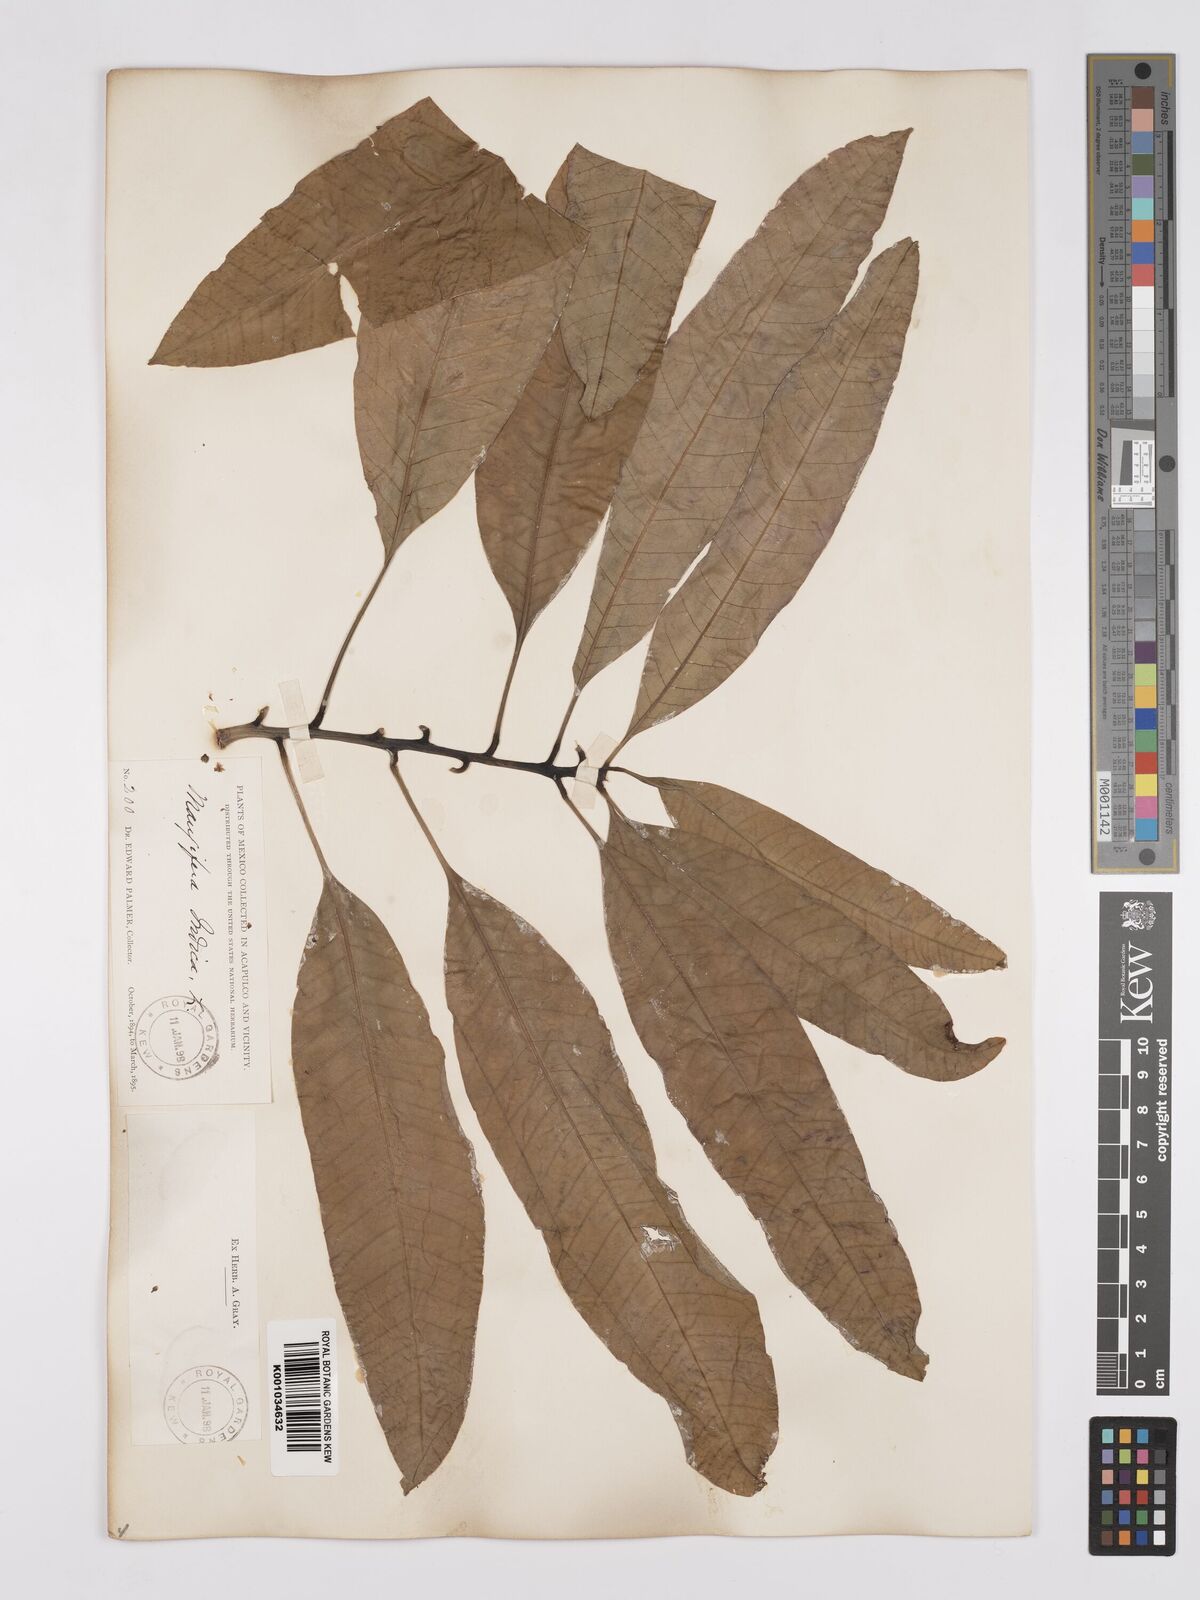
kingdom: Plantae
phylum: Tracheophyta
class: Magnoliopsida
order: Sapindales
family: Anacardiaceae
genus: Mangifera
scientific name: Mangifera indica
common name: Mango
